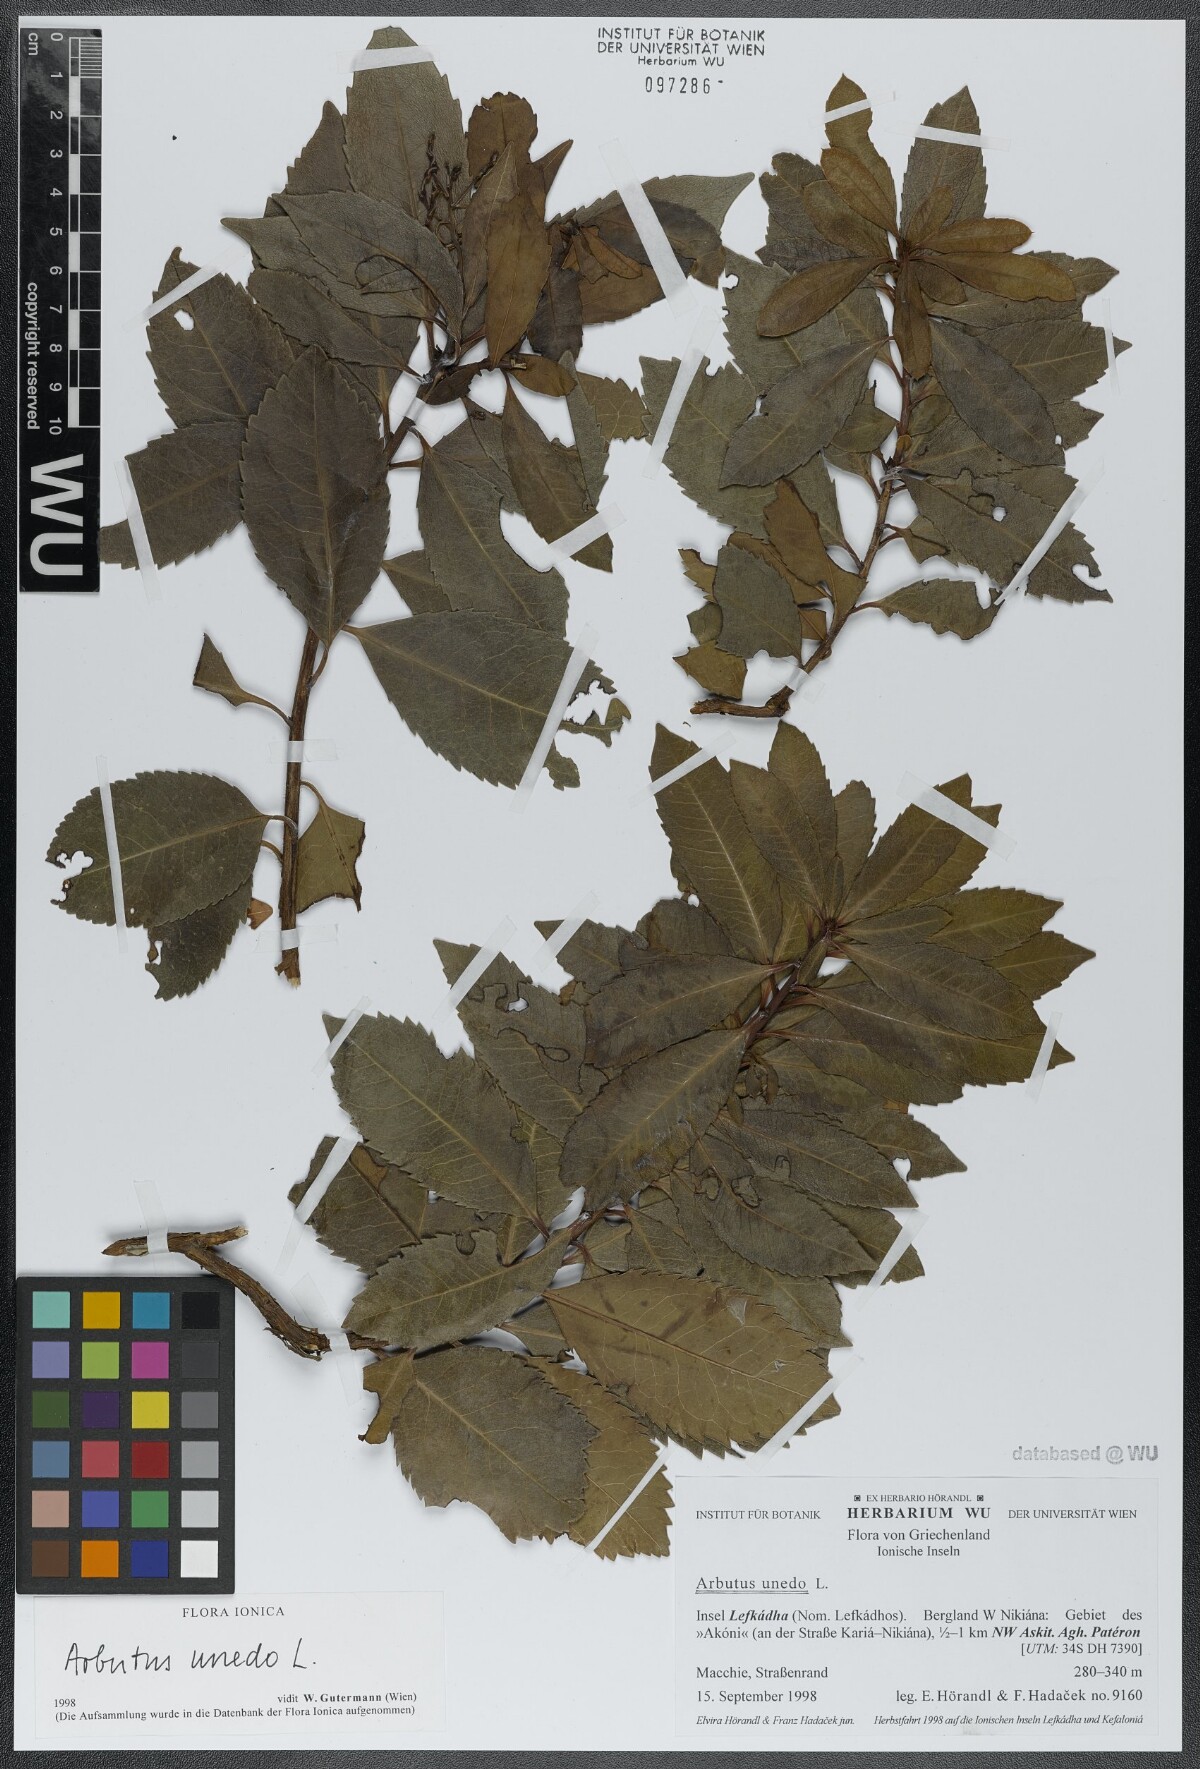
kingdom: Plantae
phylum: Tracheophyta
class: Magnoliopsida
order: Ericales
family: Ericaceae
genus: Arbutus
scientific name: Arbutus unedo
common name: Strawberry-tree
